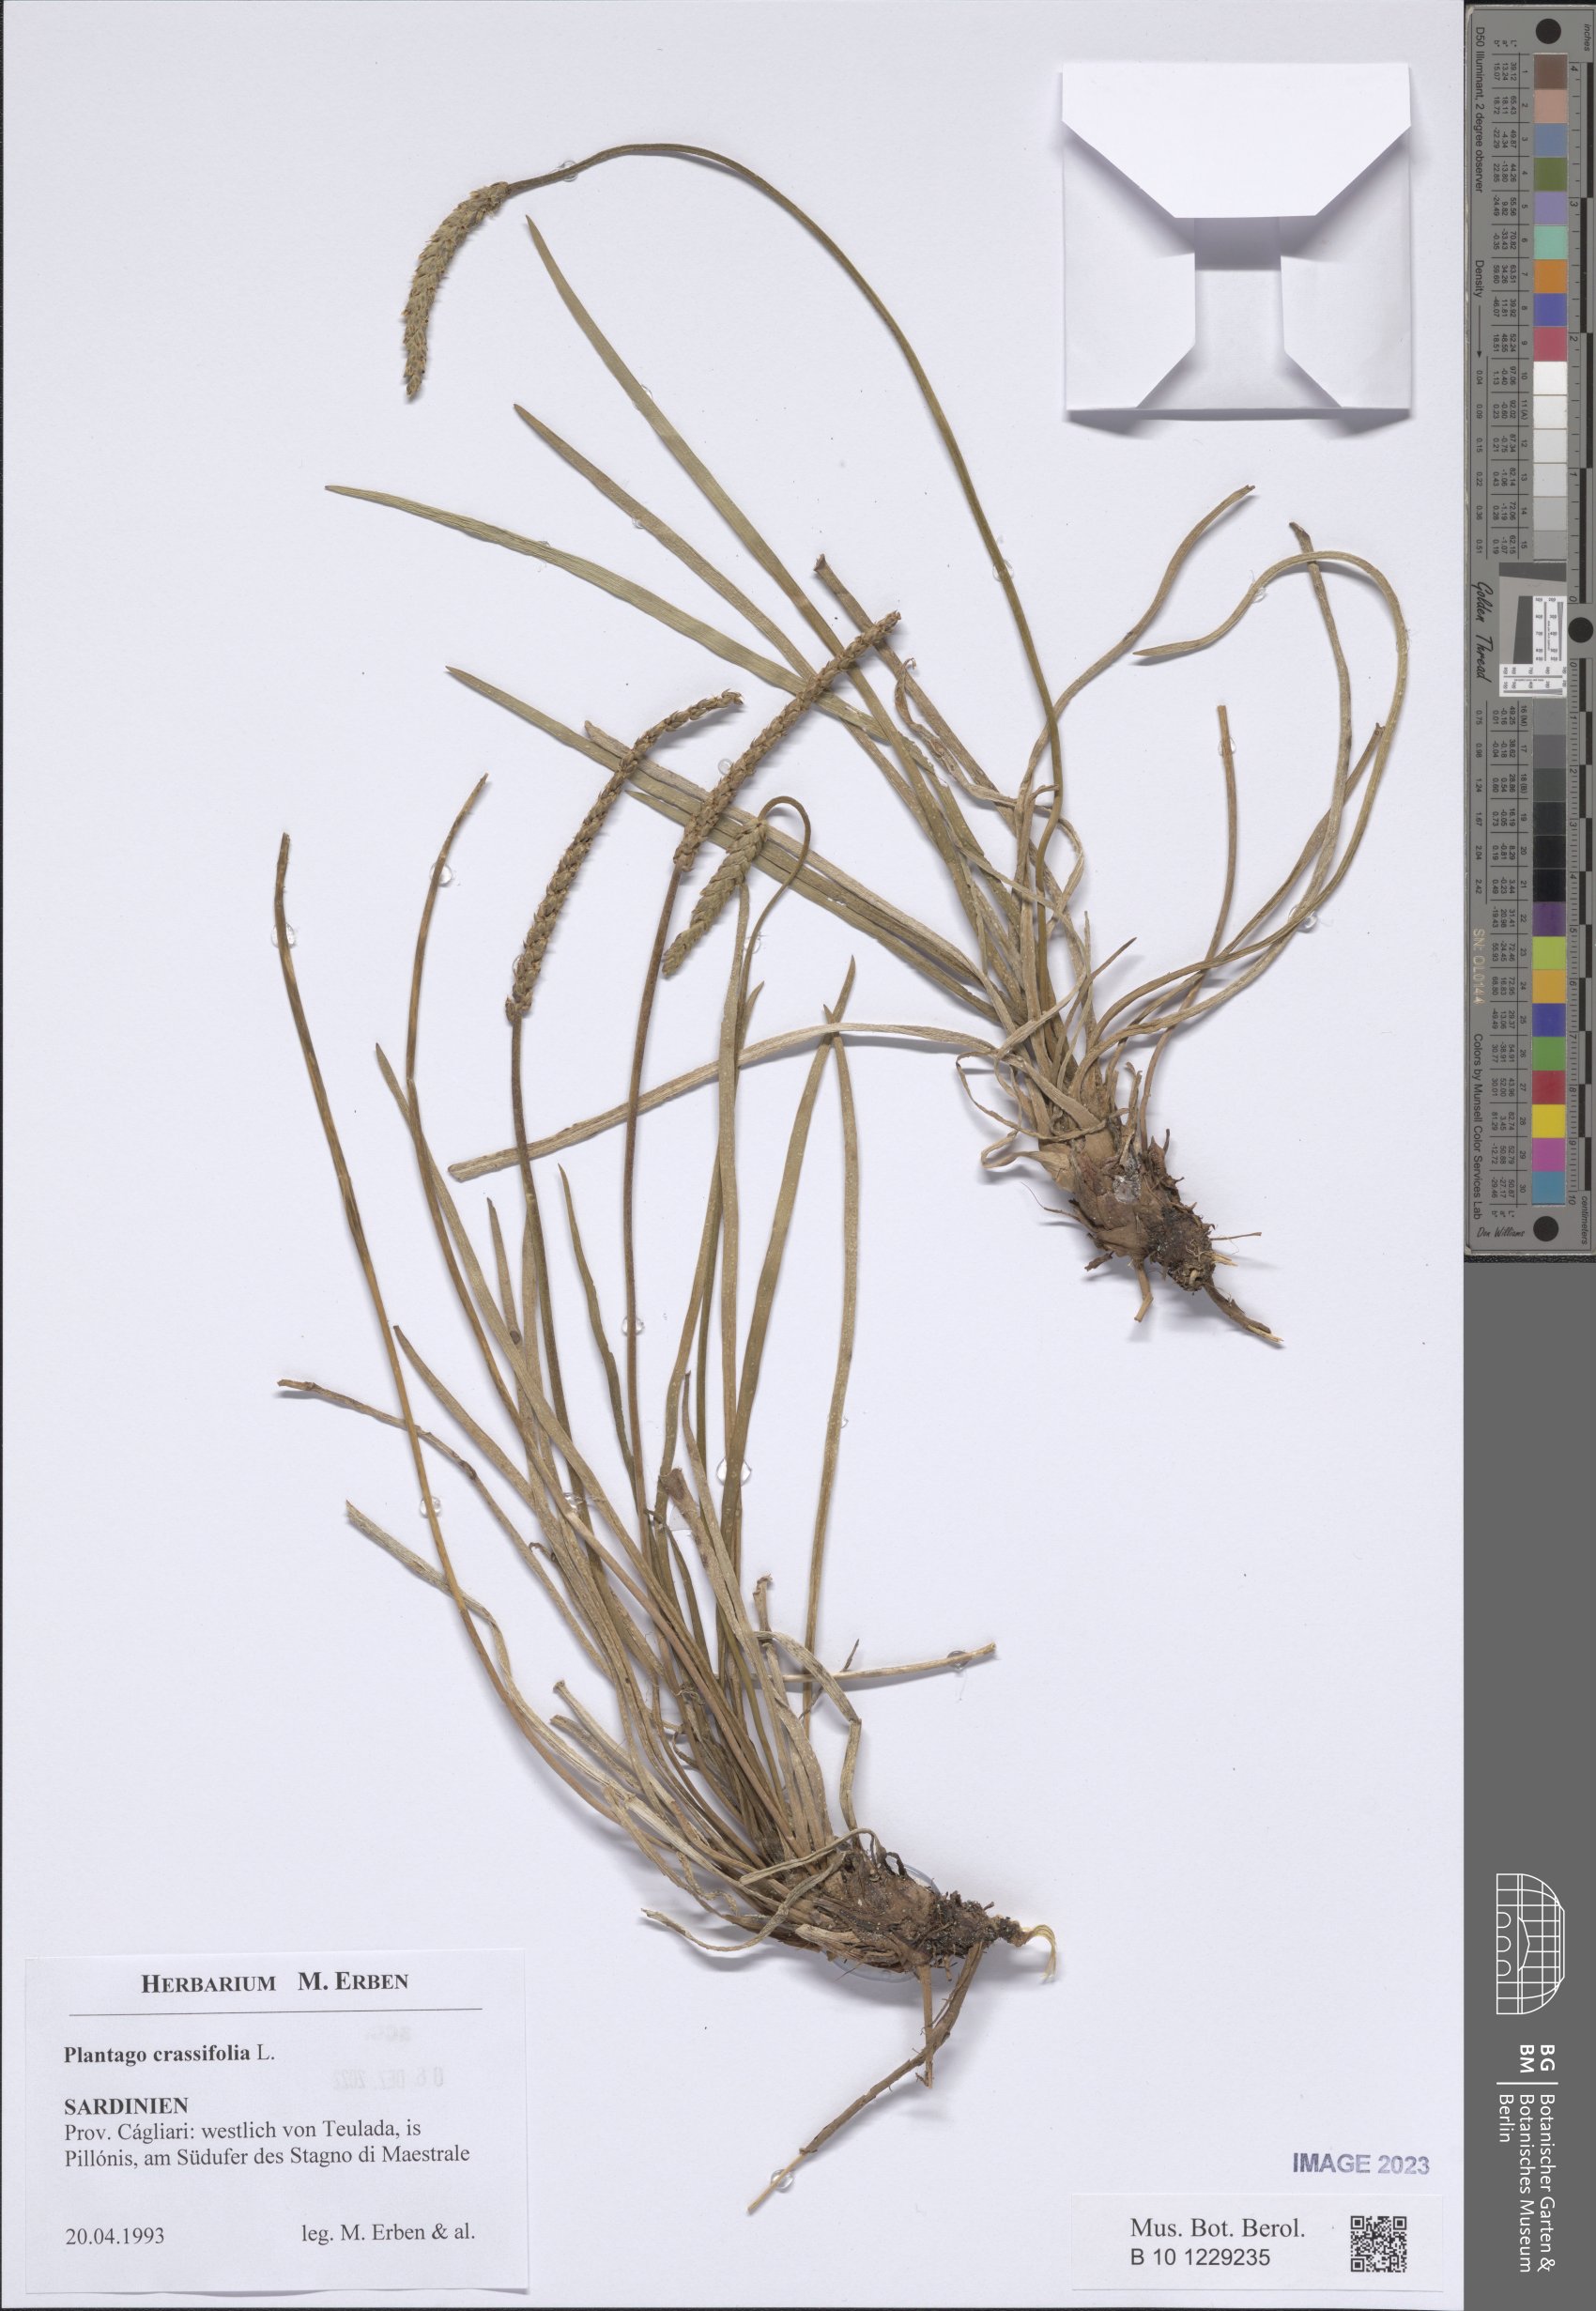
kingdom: Plantae
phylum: Tracheophyta
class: Magnoliopsida
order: Lamiales
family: Plantaginaceae
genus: Plantago
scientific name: Plantago crassifolia
